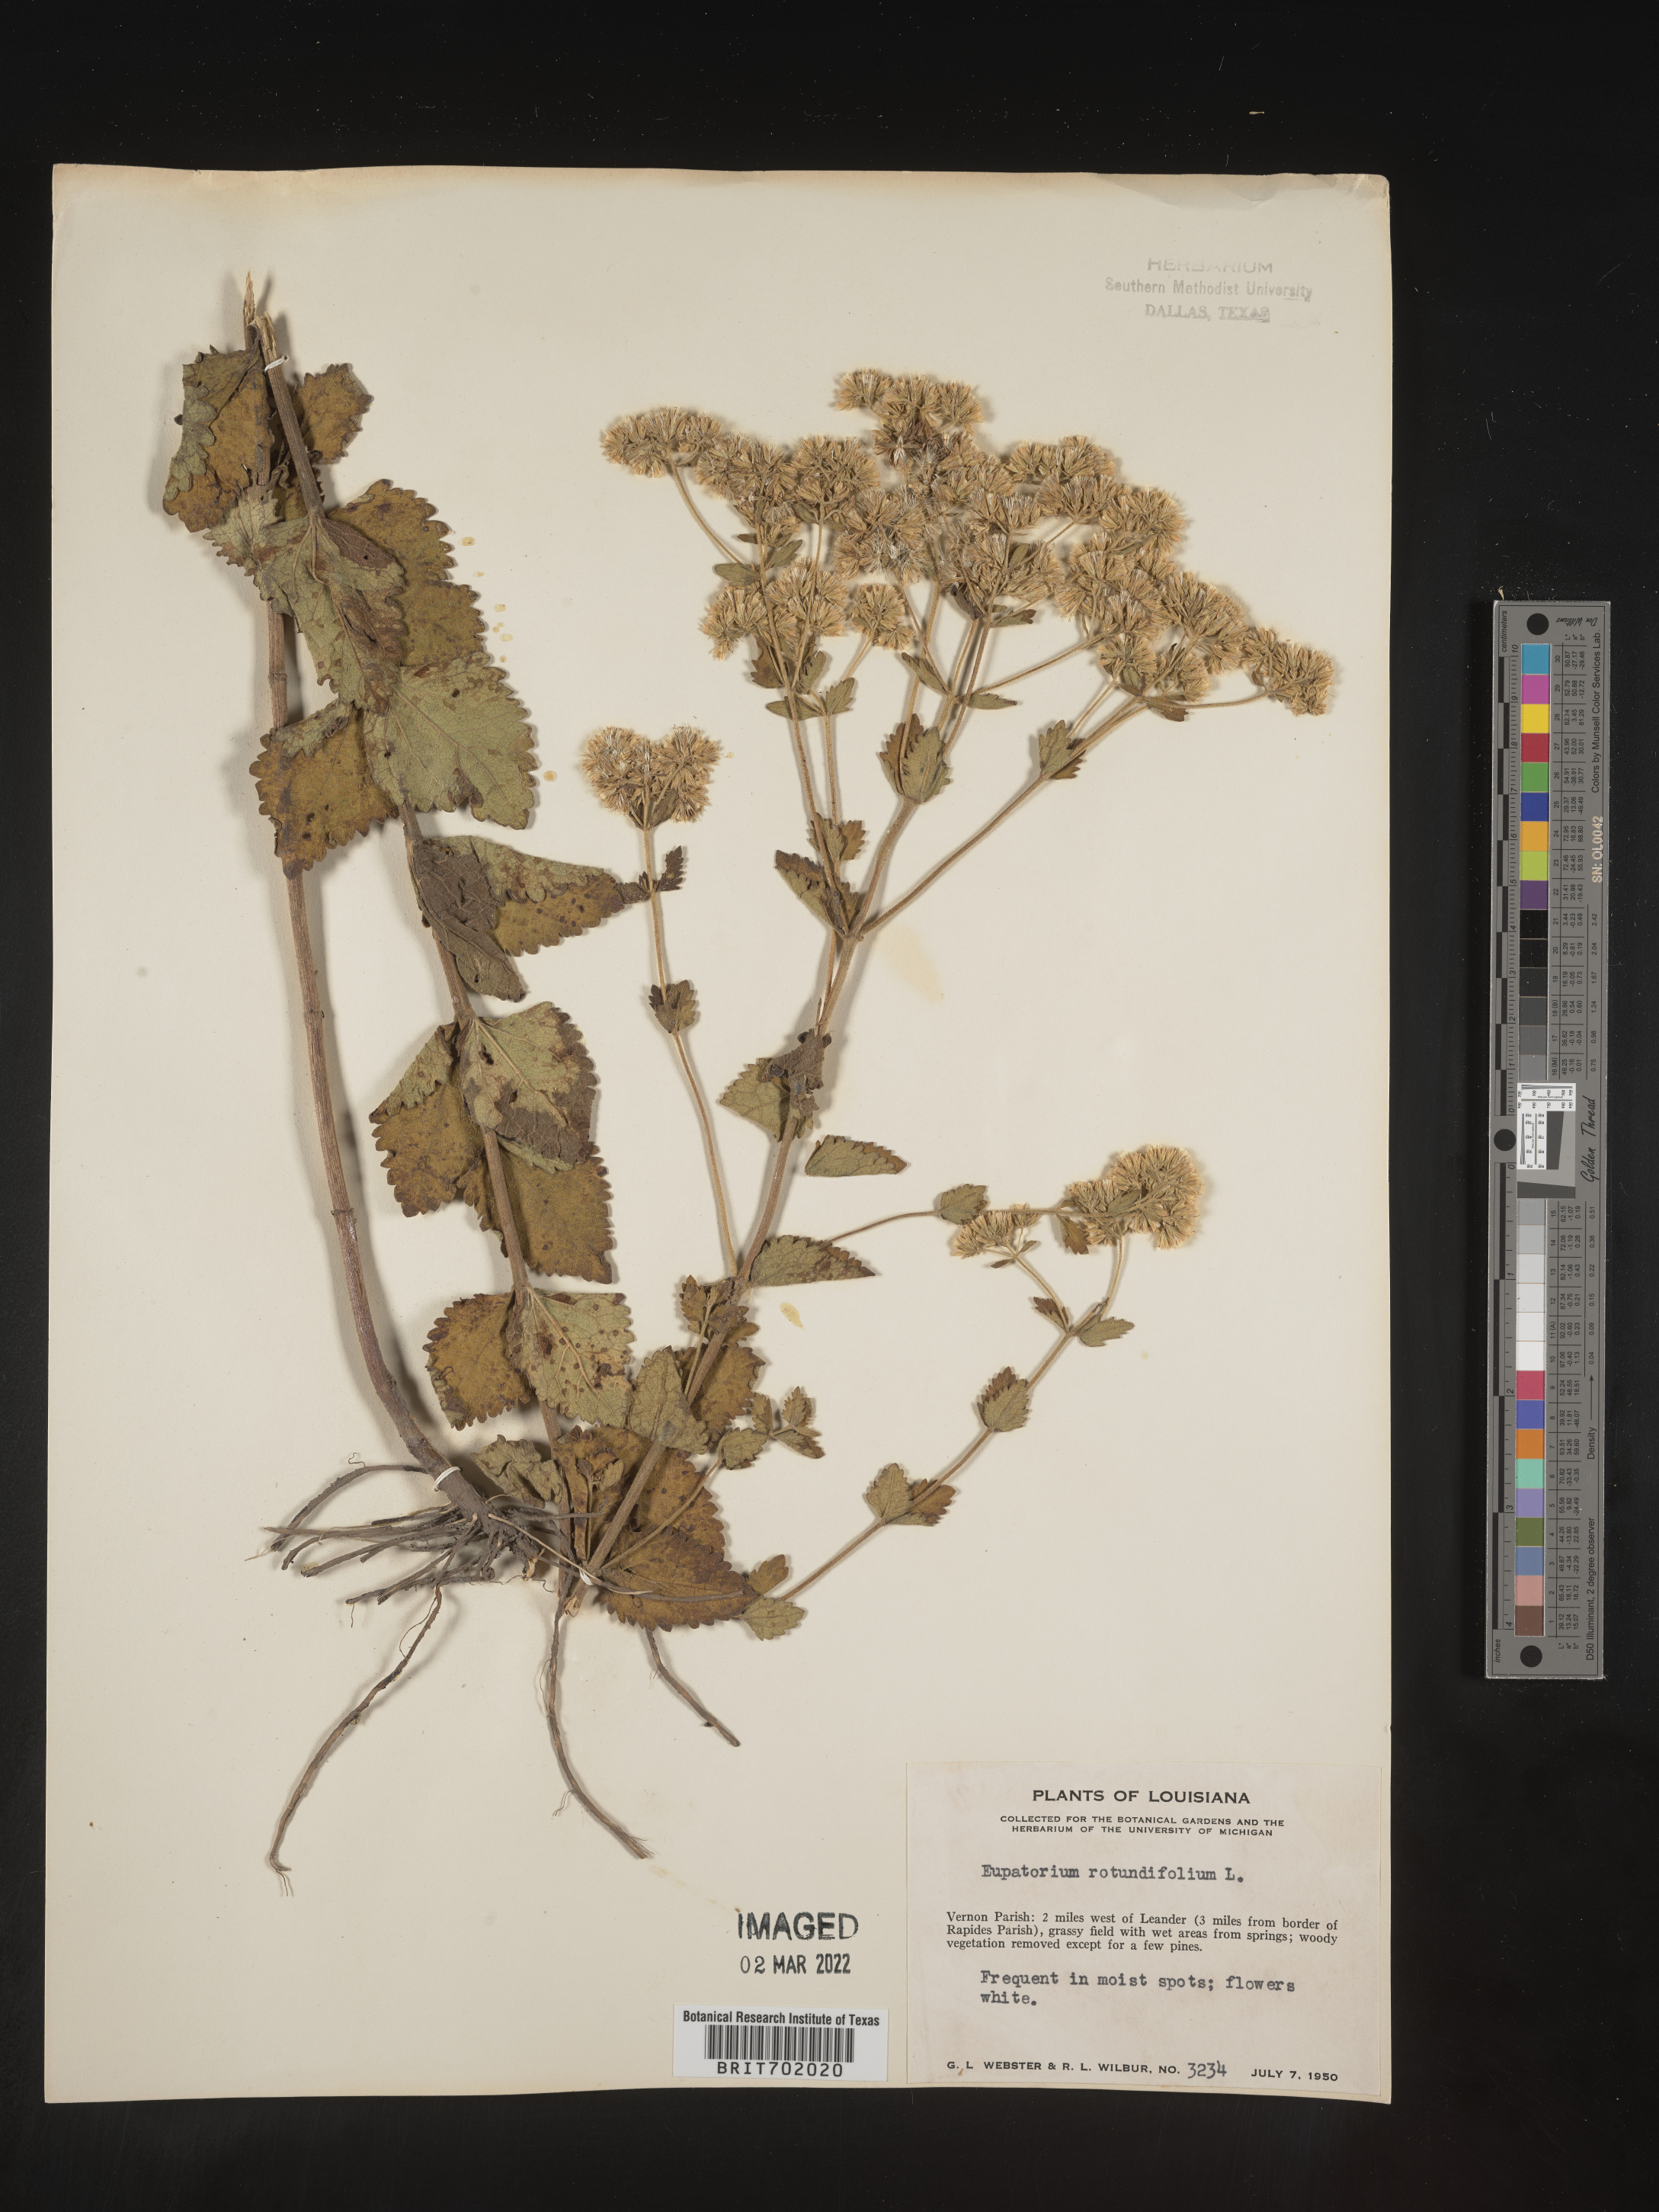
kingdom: Plantae
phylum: Tracheophyta
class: Magnoliopsida
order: Asterales
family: Asteraceae
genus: Eupatorium
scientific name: Eupatorium rotundifolium
